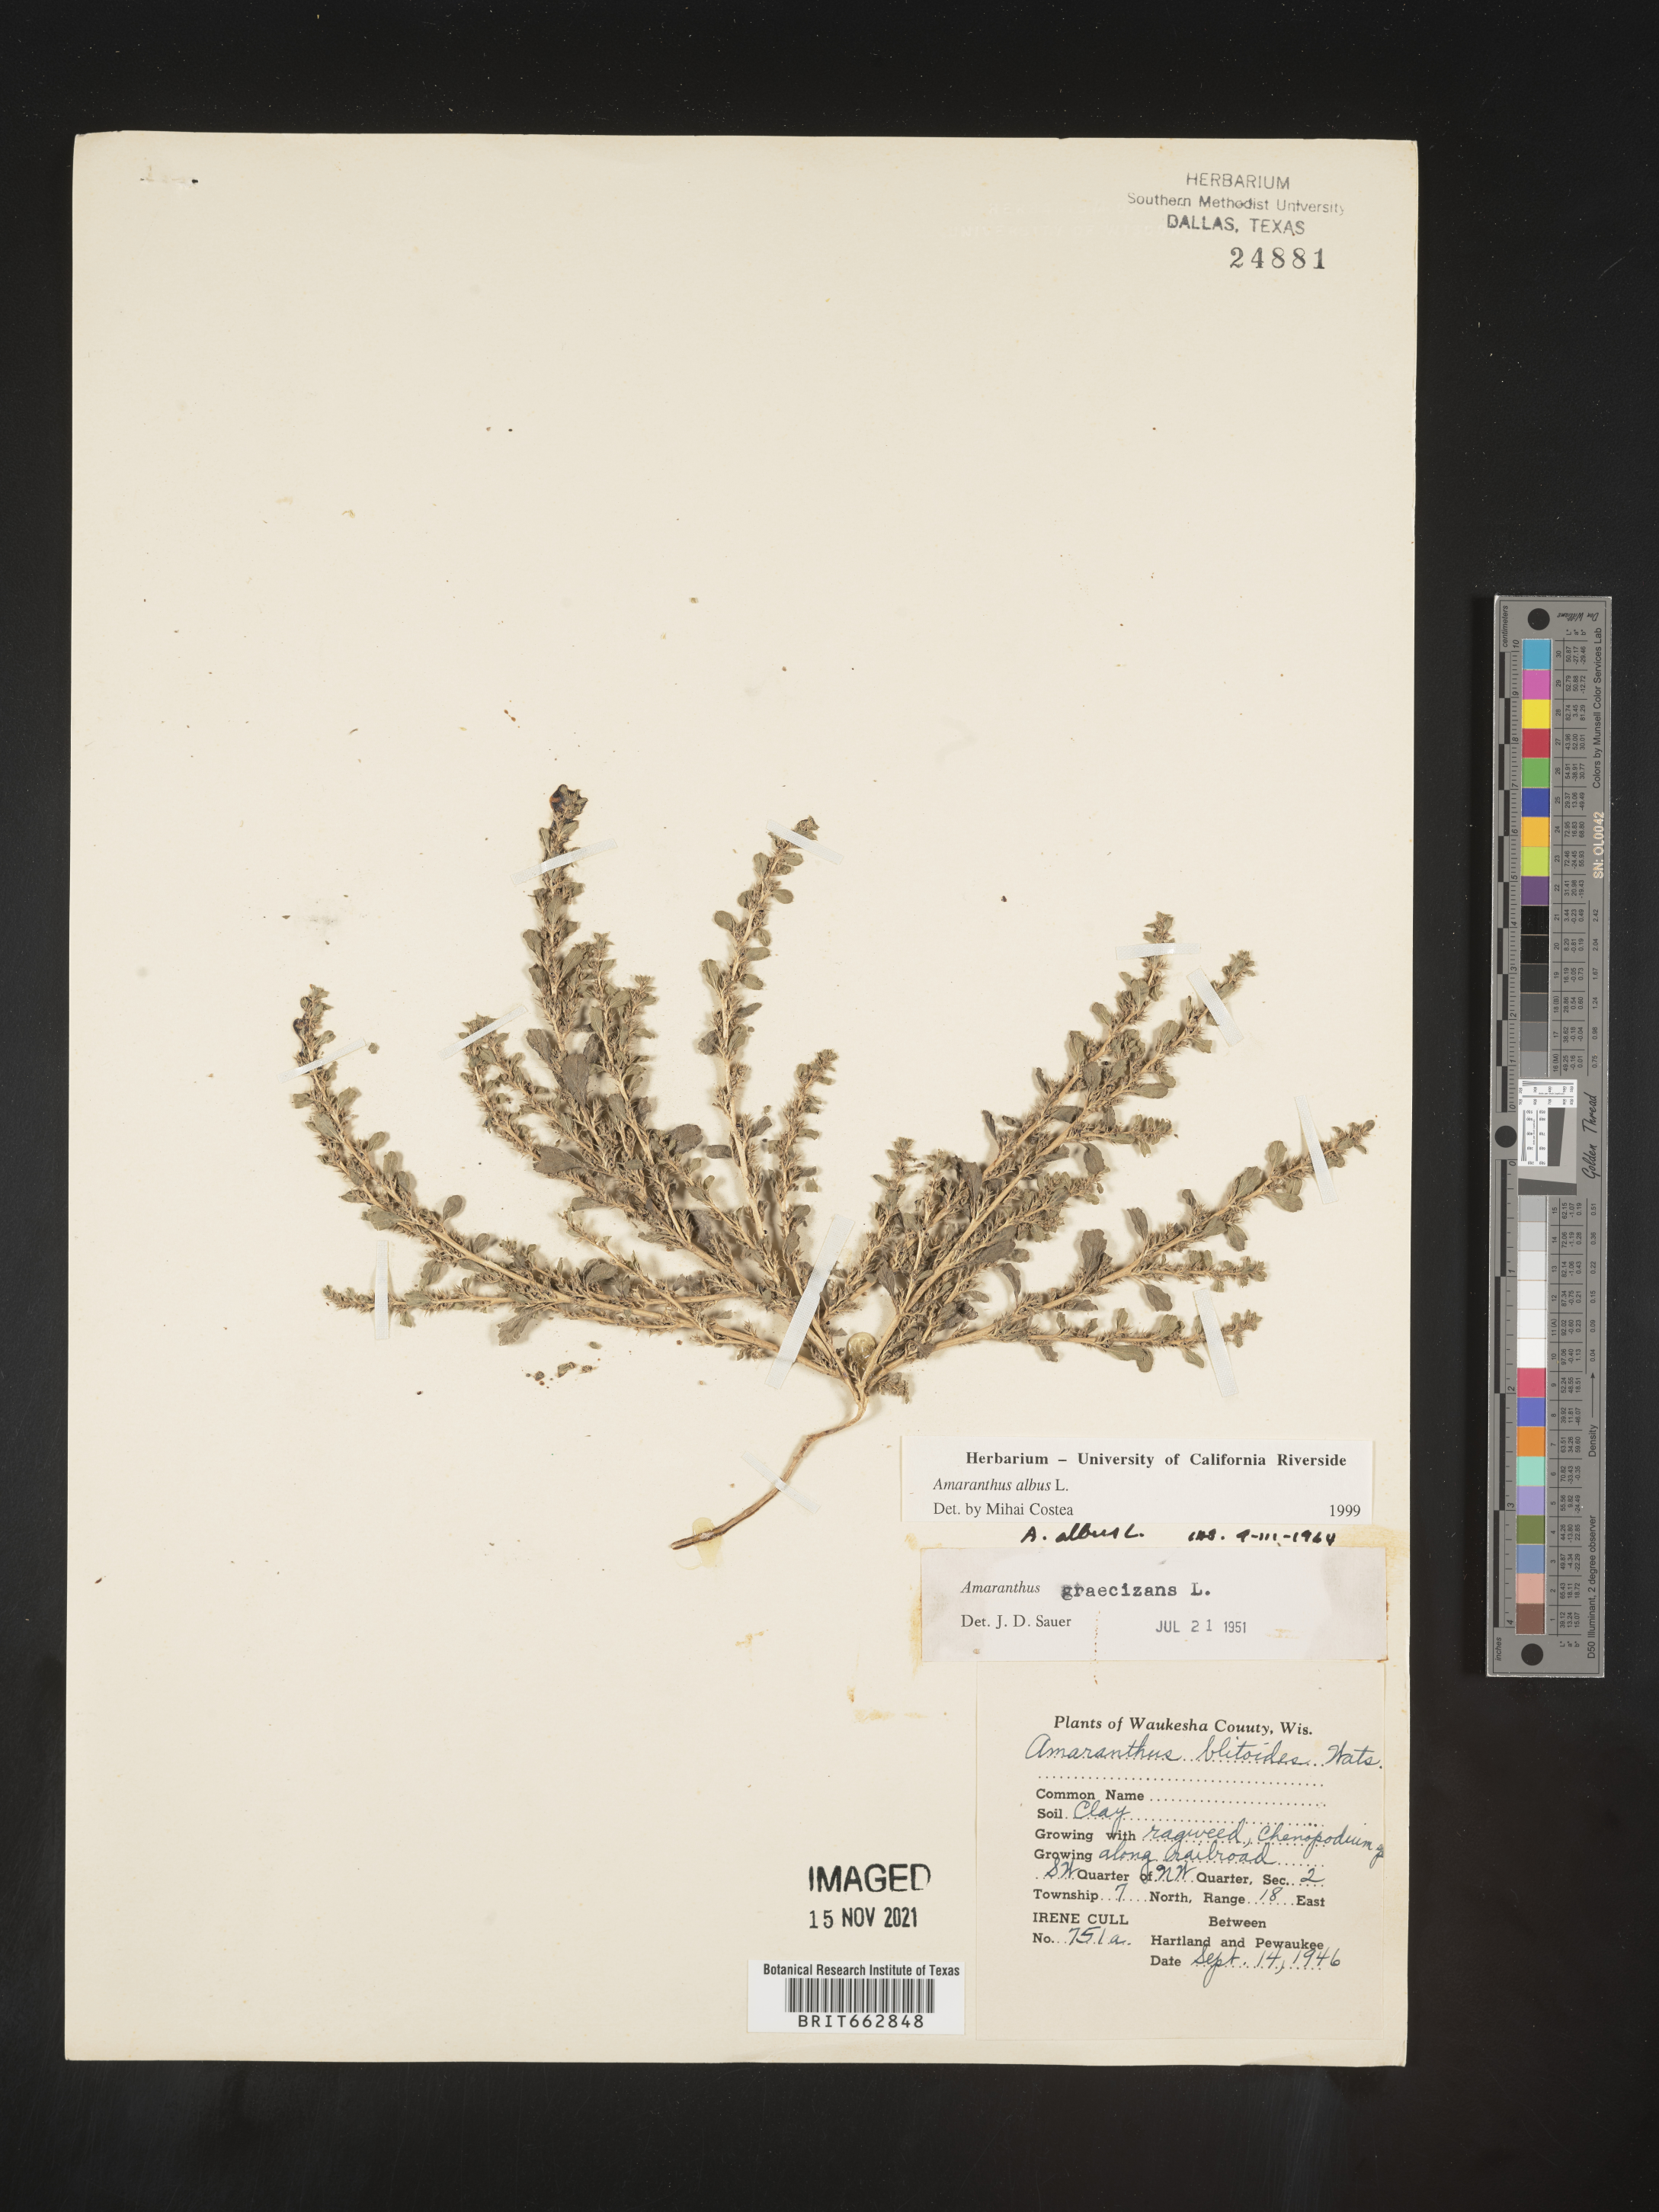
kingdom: Plantae
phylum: Tracheophyta
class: Magnoliopsida
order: Caryophyllales
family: Amaranthaceae
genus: Amaranthus
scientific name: Amaranthus albus
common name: White pigweed
